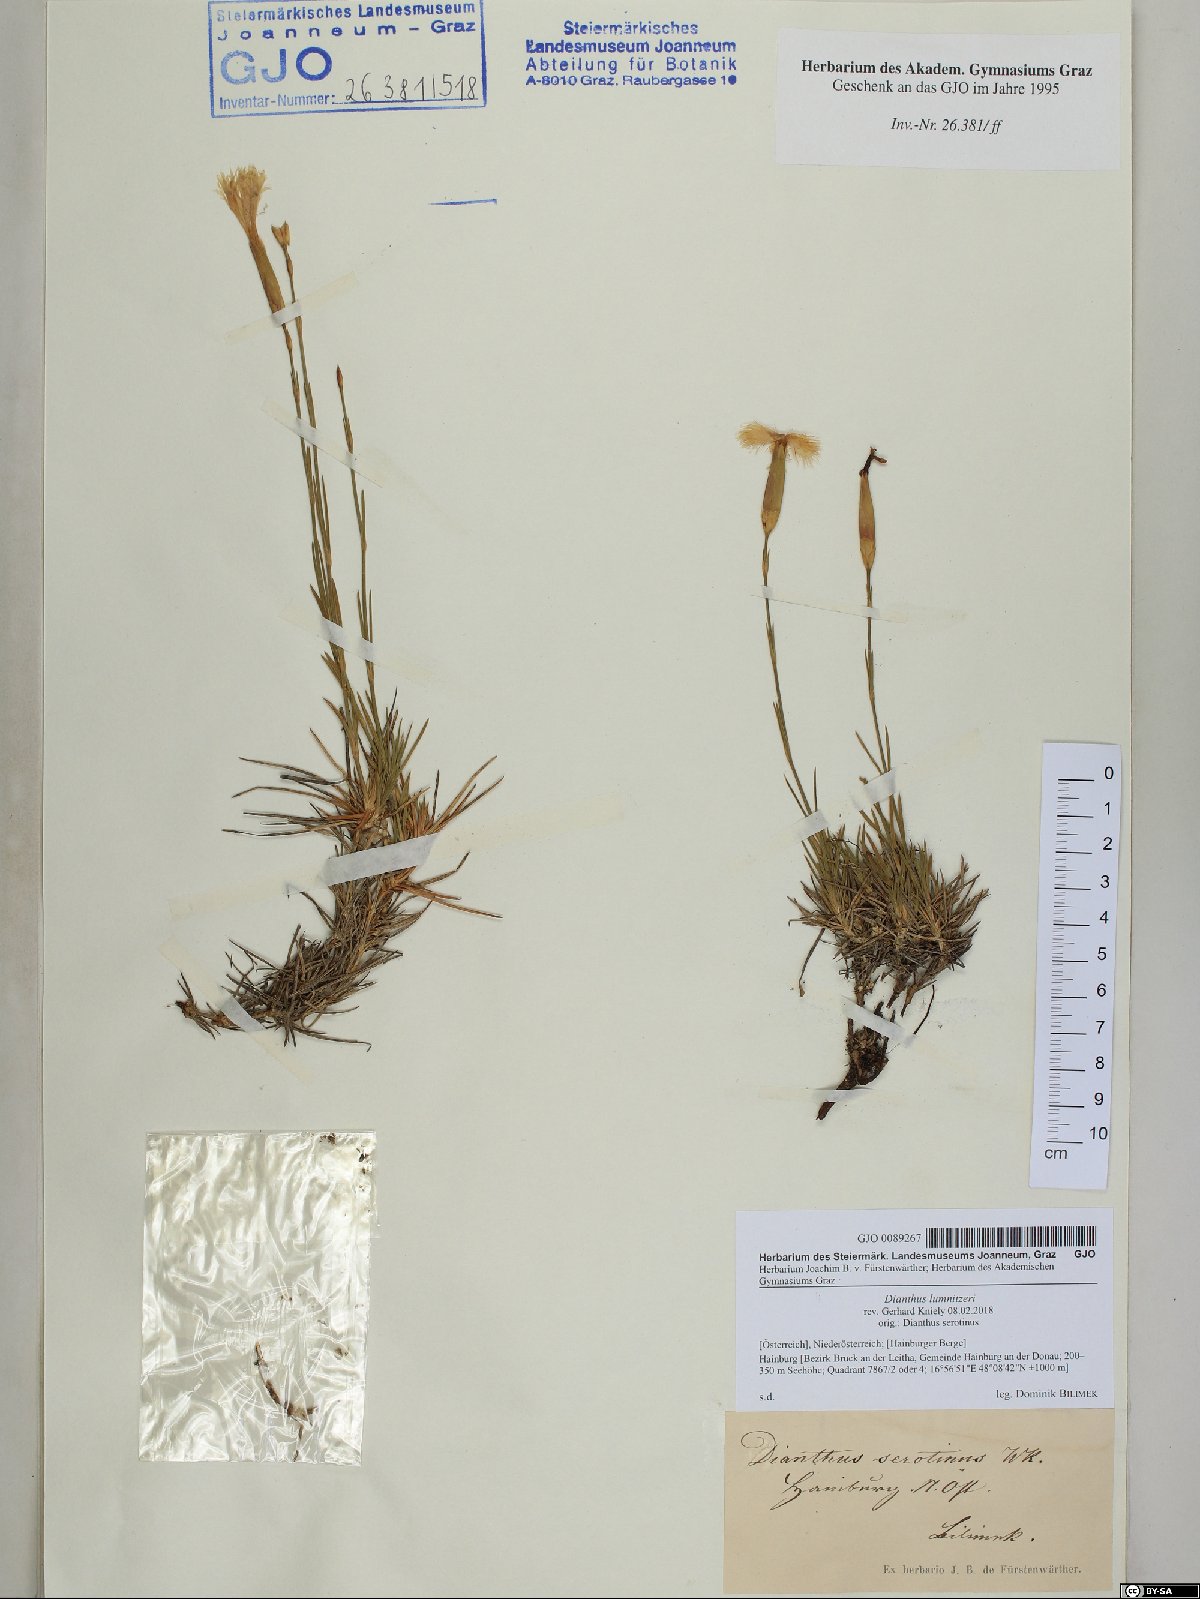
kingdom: Plantae
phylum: Tracheophyta
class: Magnoliopsida
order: Caryophyllales
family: Caryophyllaceae
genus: Dianthus
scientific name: Dianthus praecox
